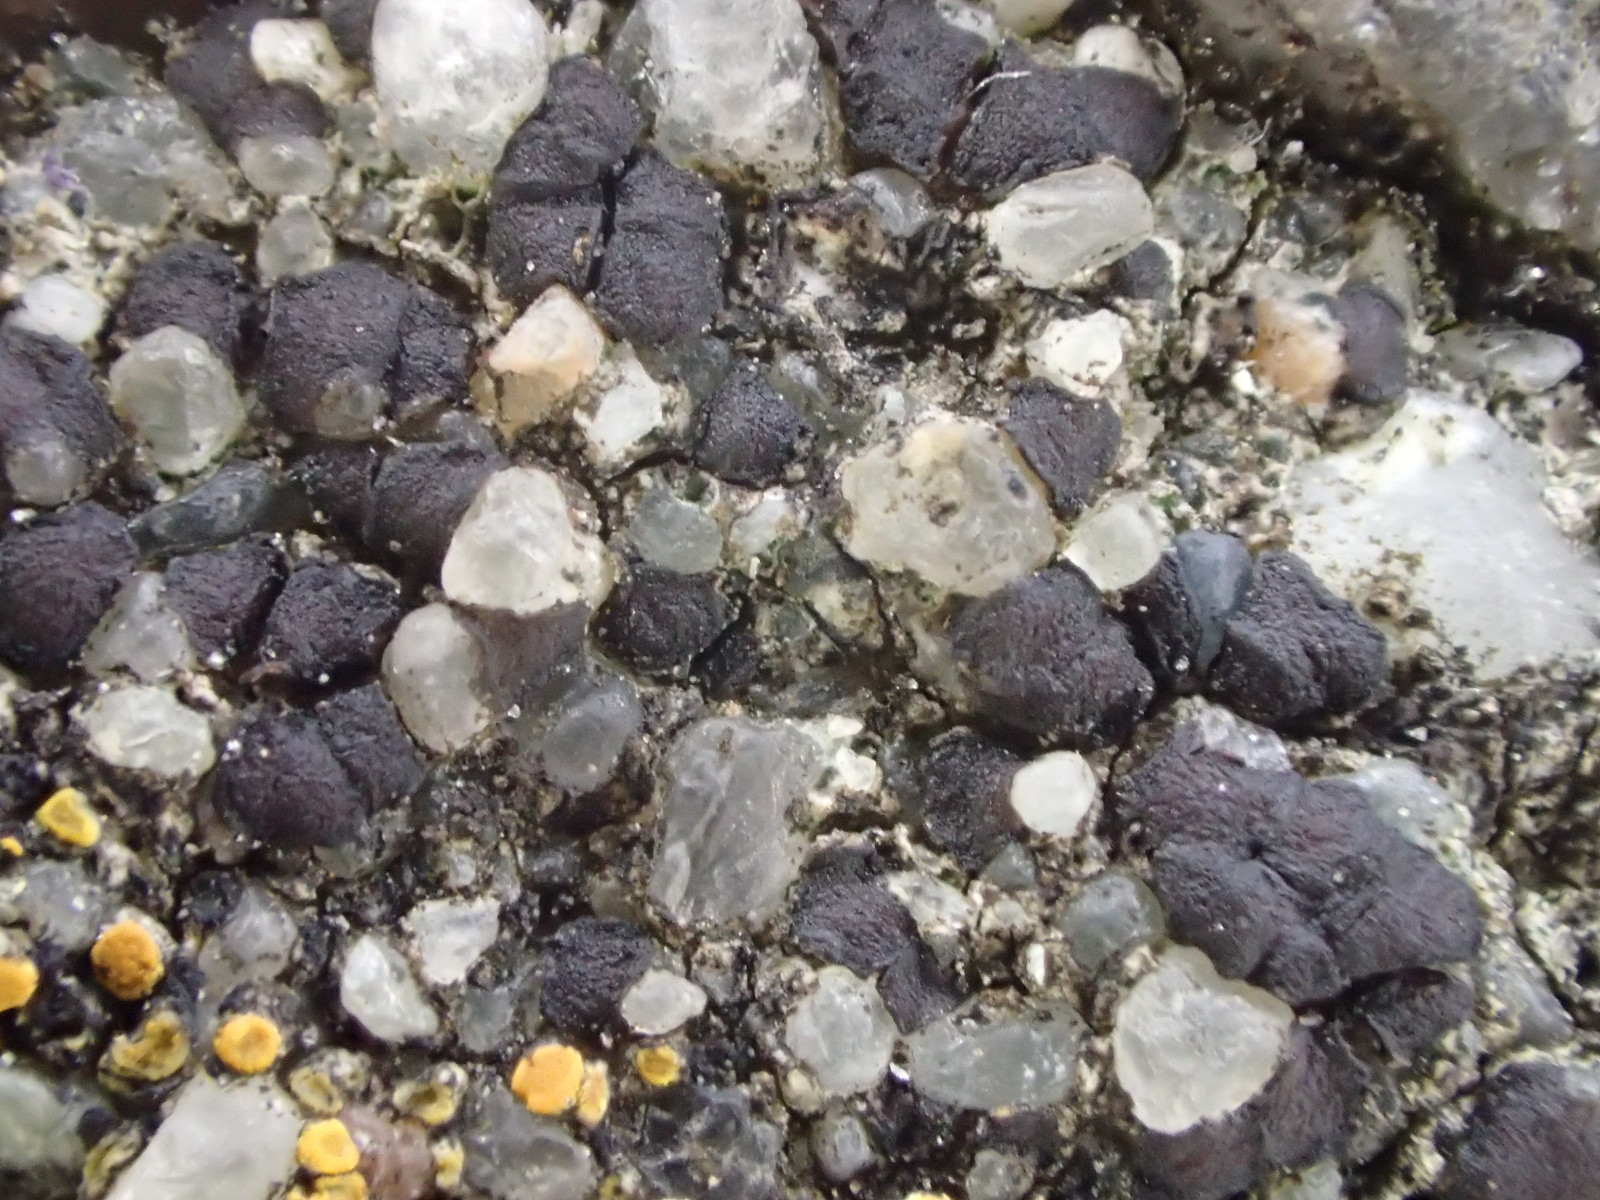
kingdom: Fungi
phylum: Ascomycota
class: Lecanoromycetes
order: Acarosporales
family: Acarosporaceae
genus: Sarcogyne
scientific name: Sarcogyne regularis
